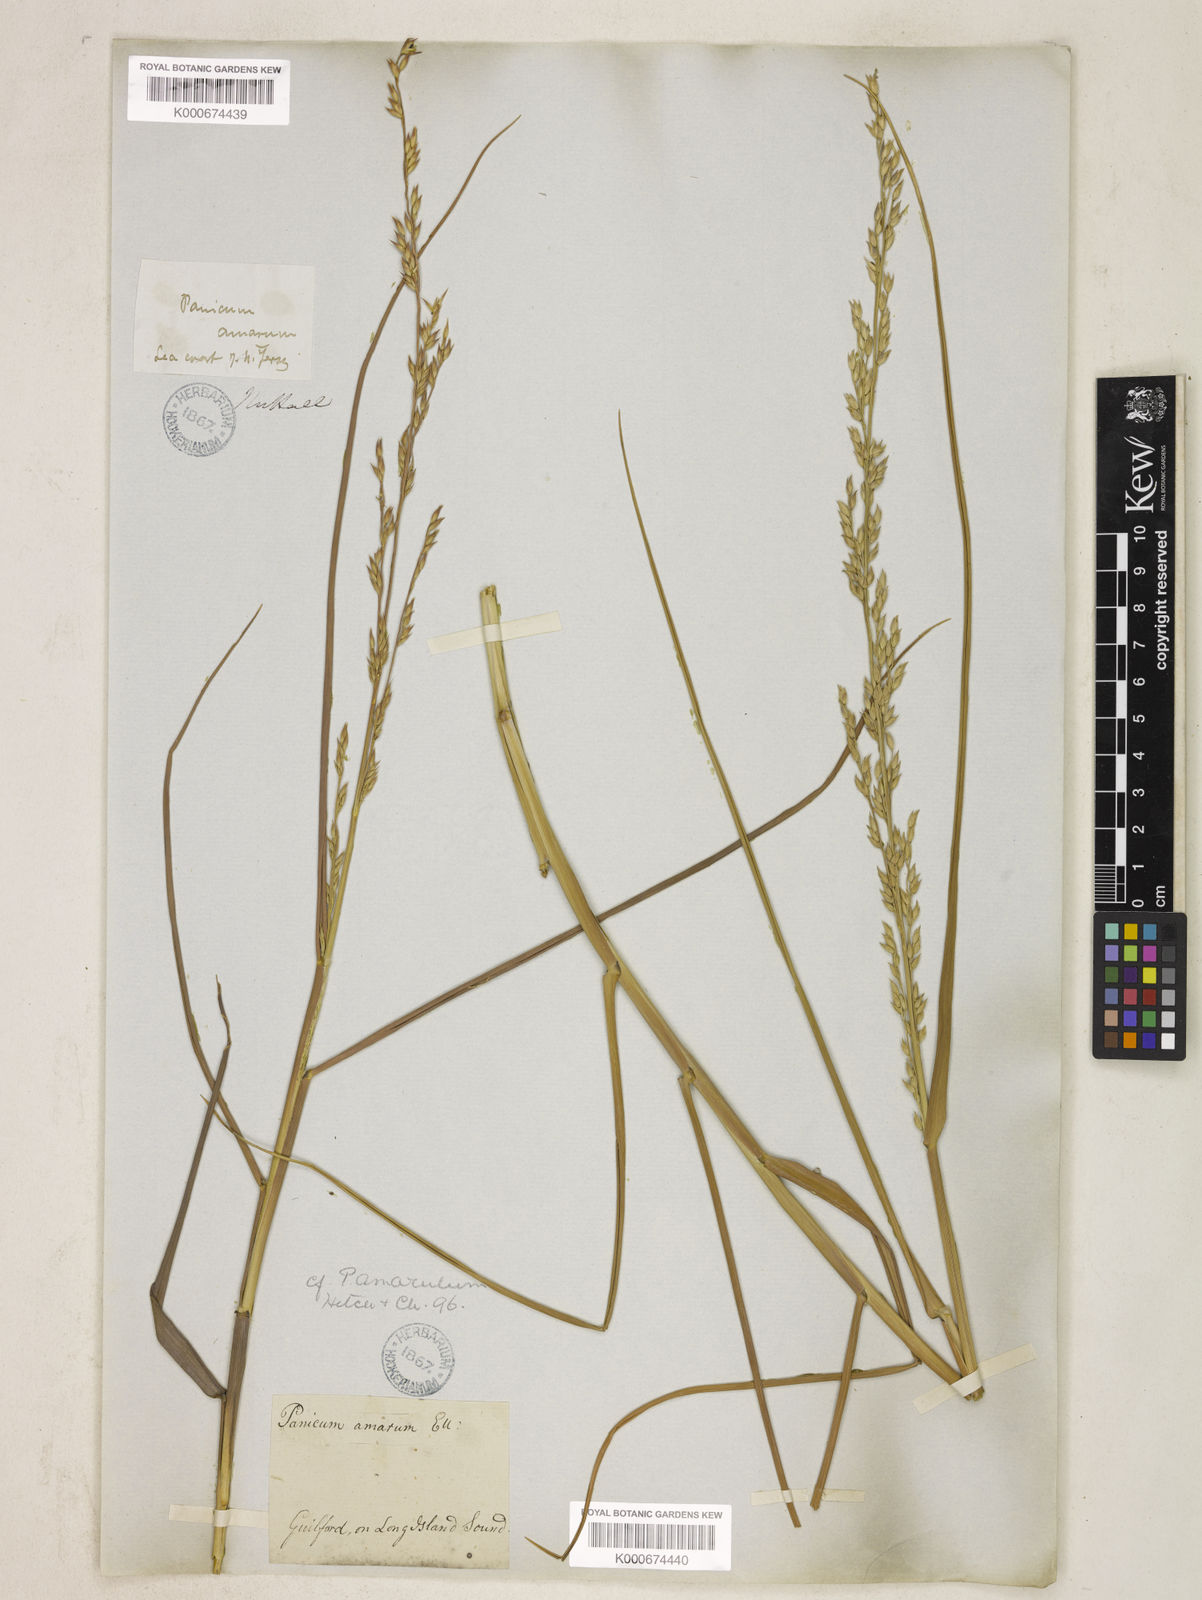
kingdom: Plantae
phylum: Tracheophyta
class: Liliopsida
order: Poales
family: Poaceae
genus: Panicum
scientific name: Panicum amarum
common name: Bitter panicum
